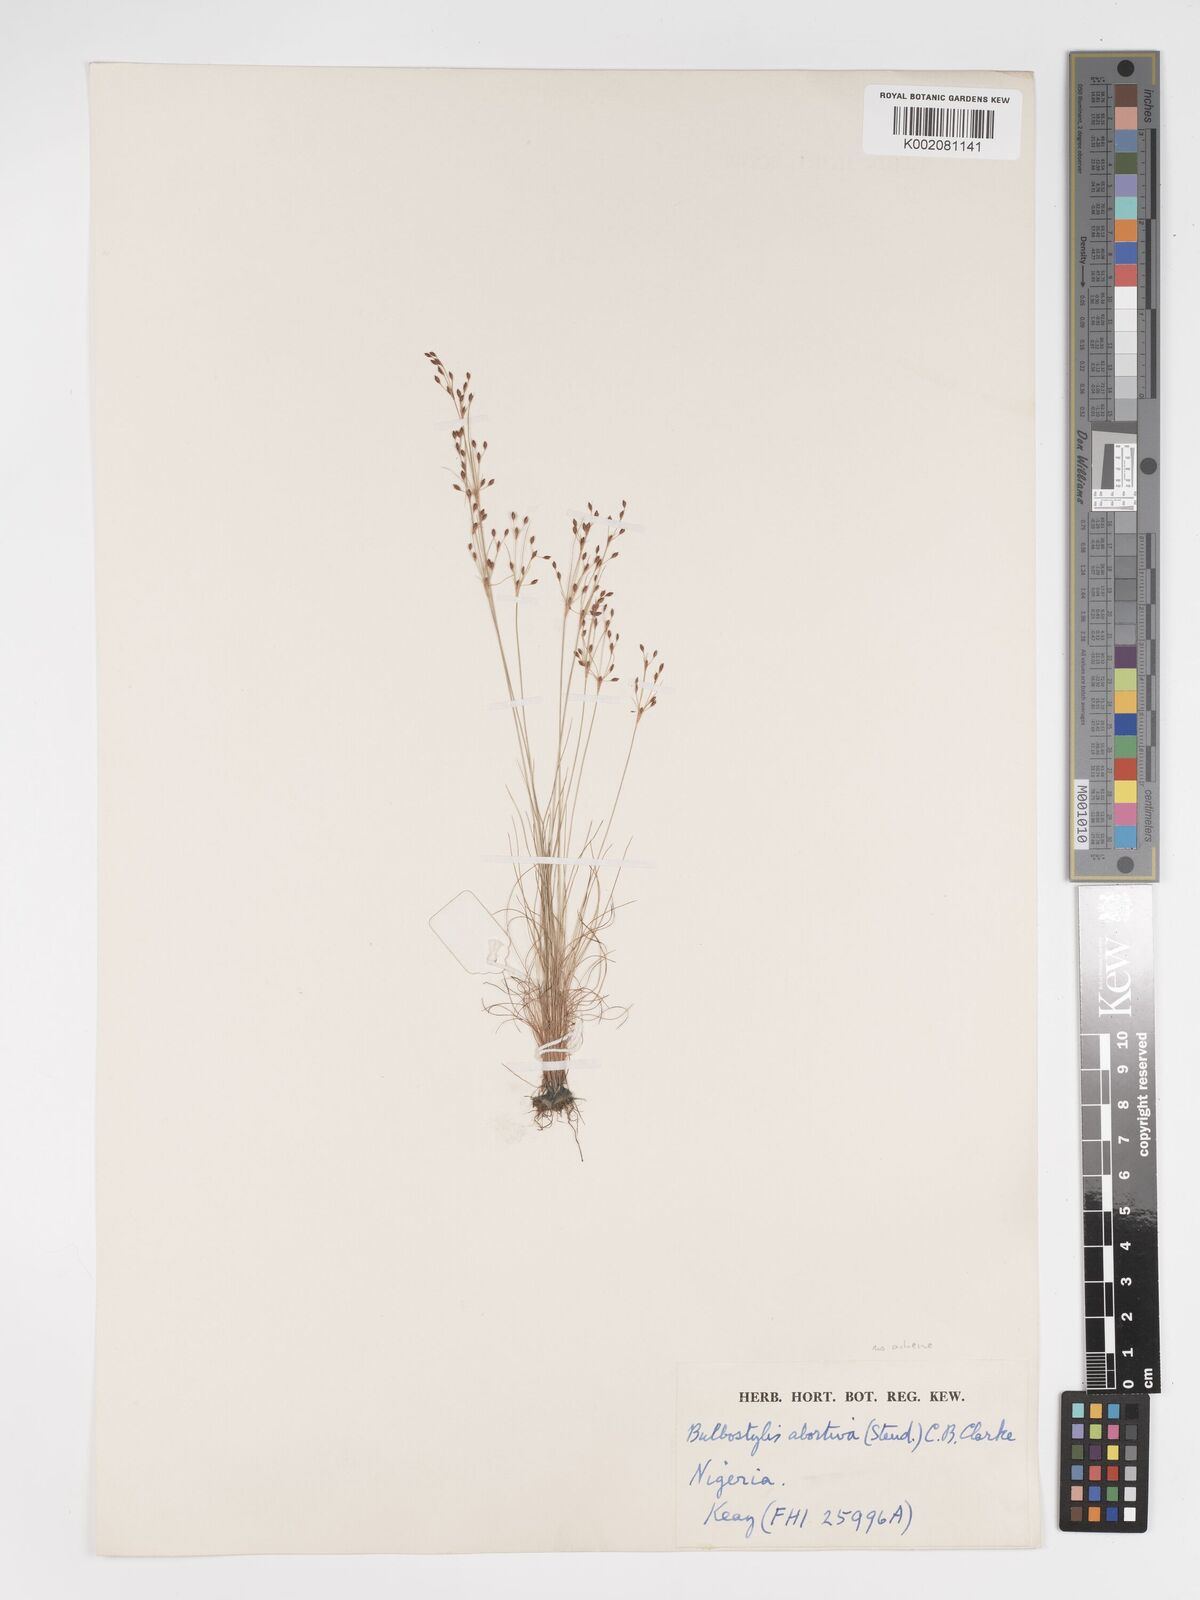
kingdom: Plantae
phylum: Tracheophyta
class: Liliopsida
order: Poales
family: Cyperaceae
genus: Bulbostylis
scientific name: Bulbostylis abortiva
